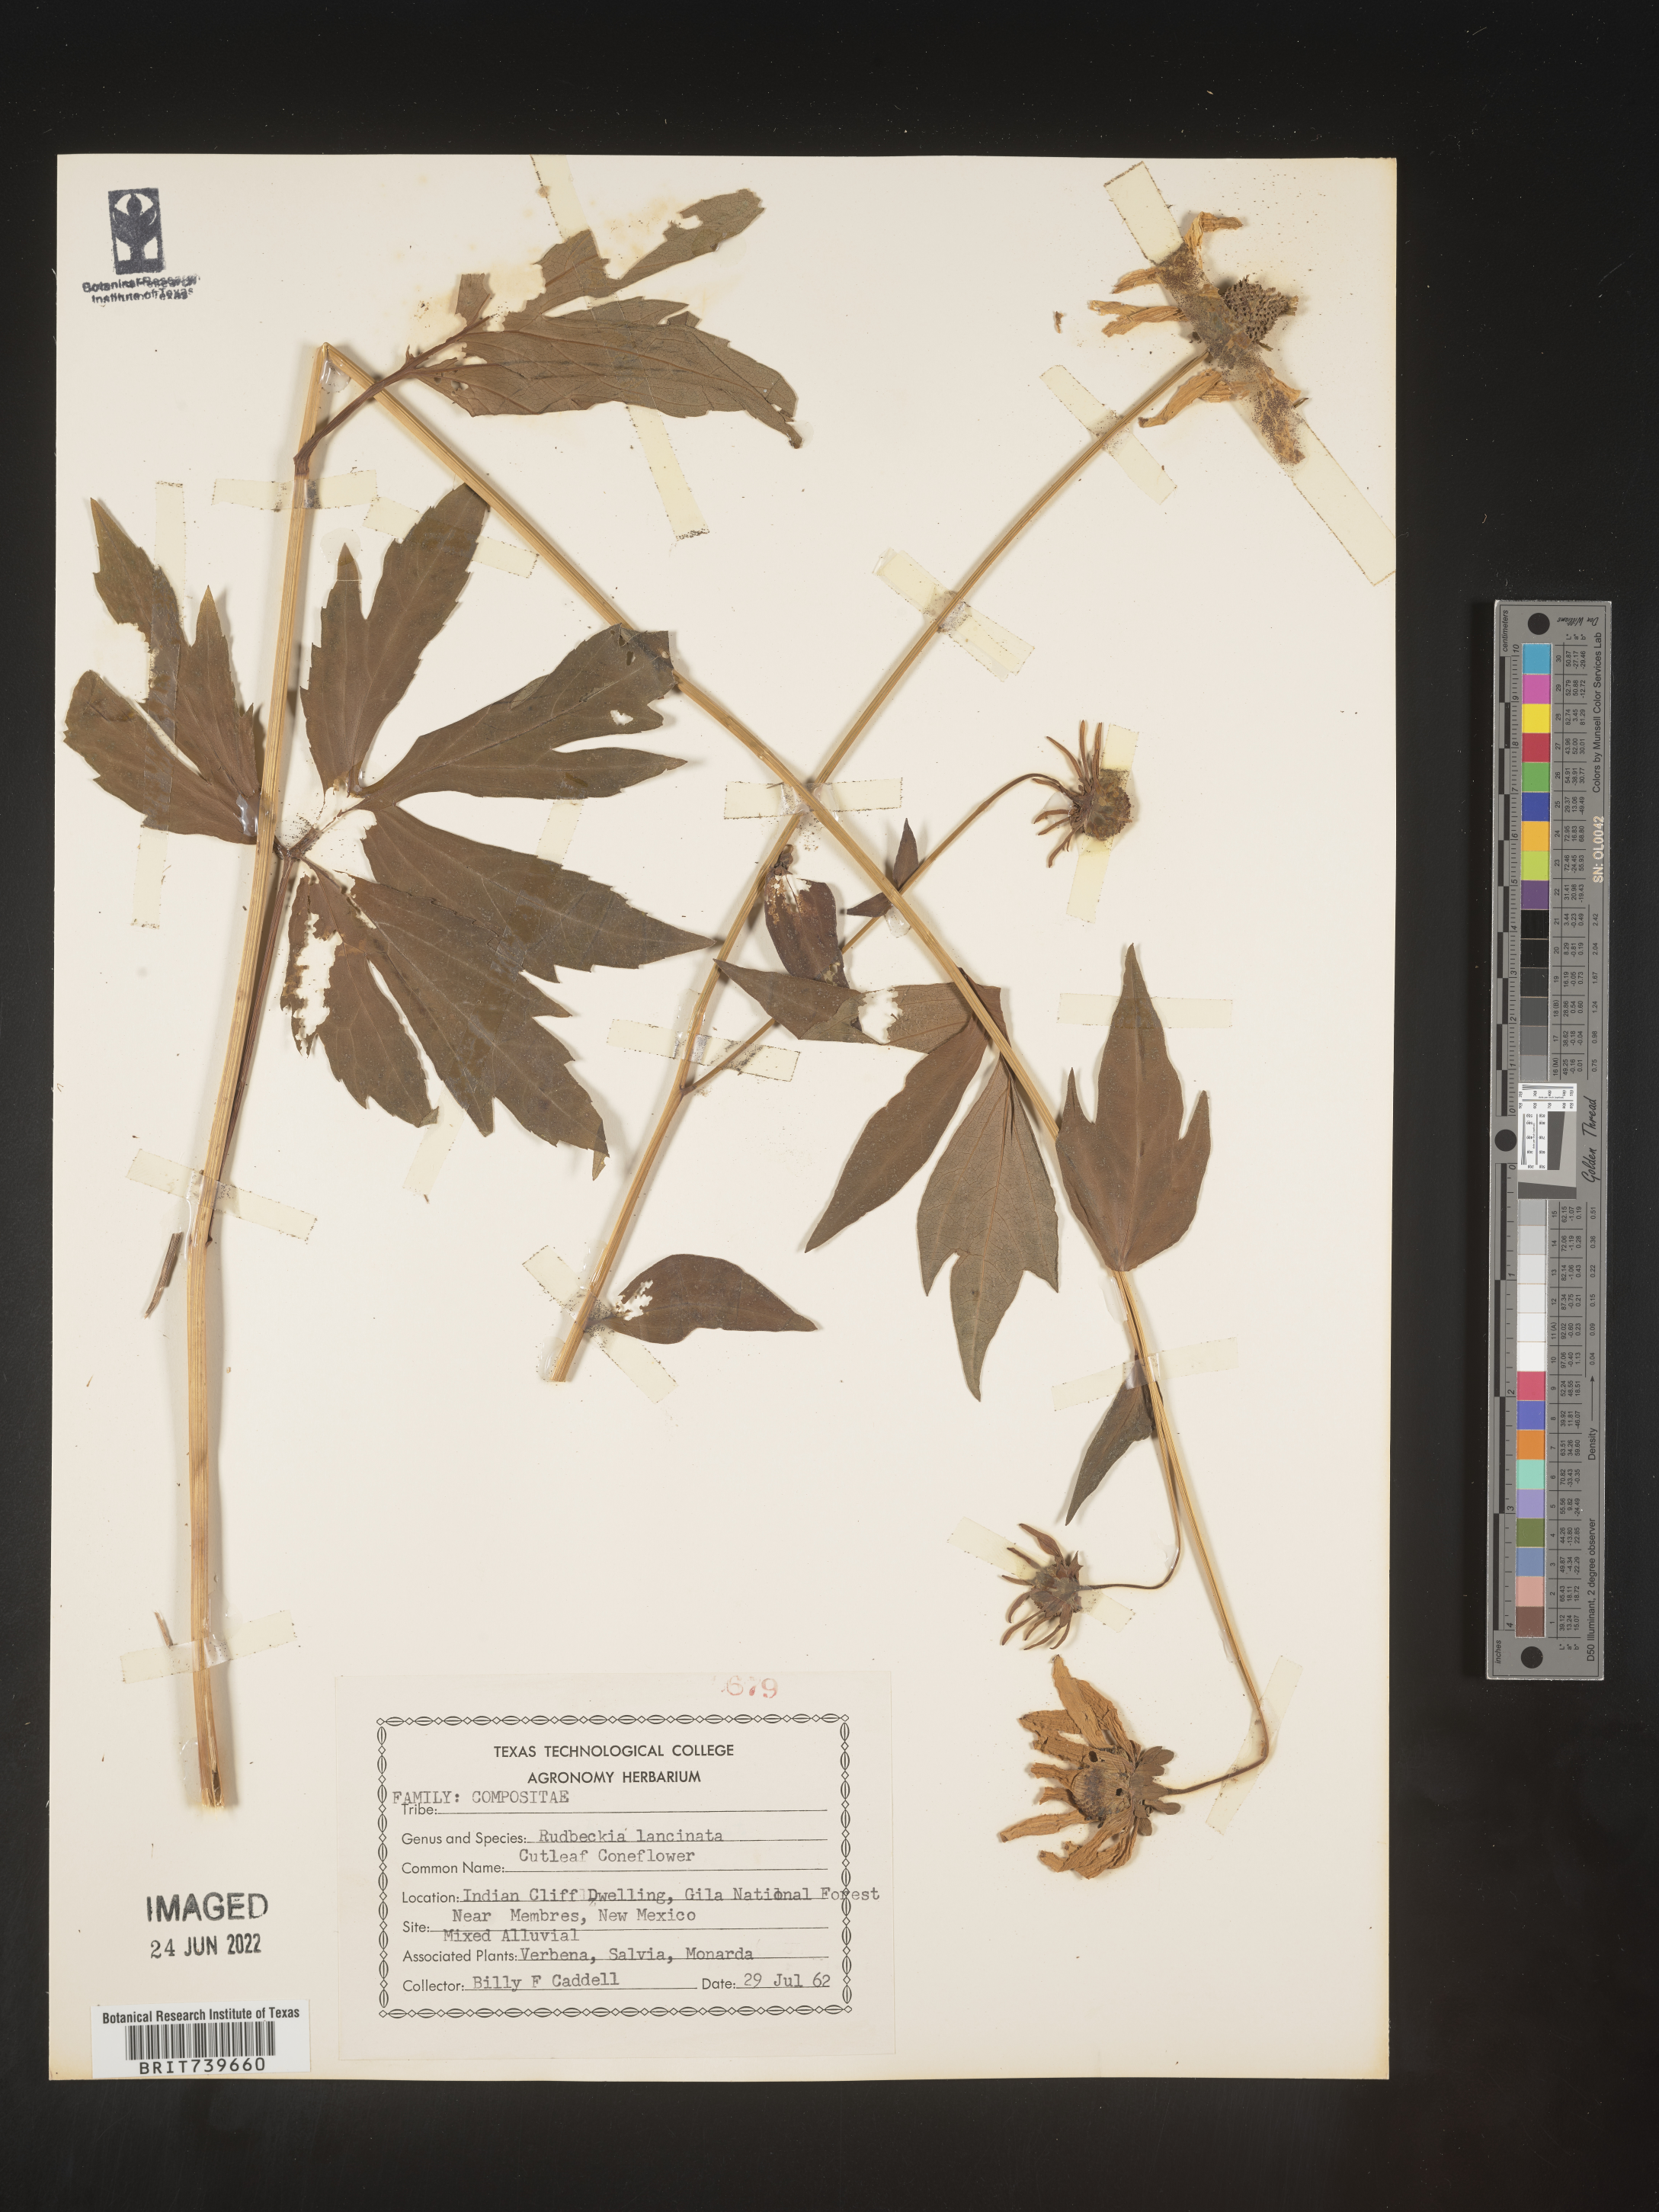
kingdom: Plantae
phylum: Tracheophyta
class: Magnoliopsida
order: Asterales
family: Asteraceae
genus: Rudbeckia
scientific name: Rudbeckia laciniata
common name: Coneflower
